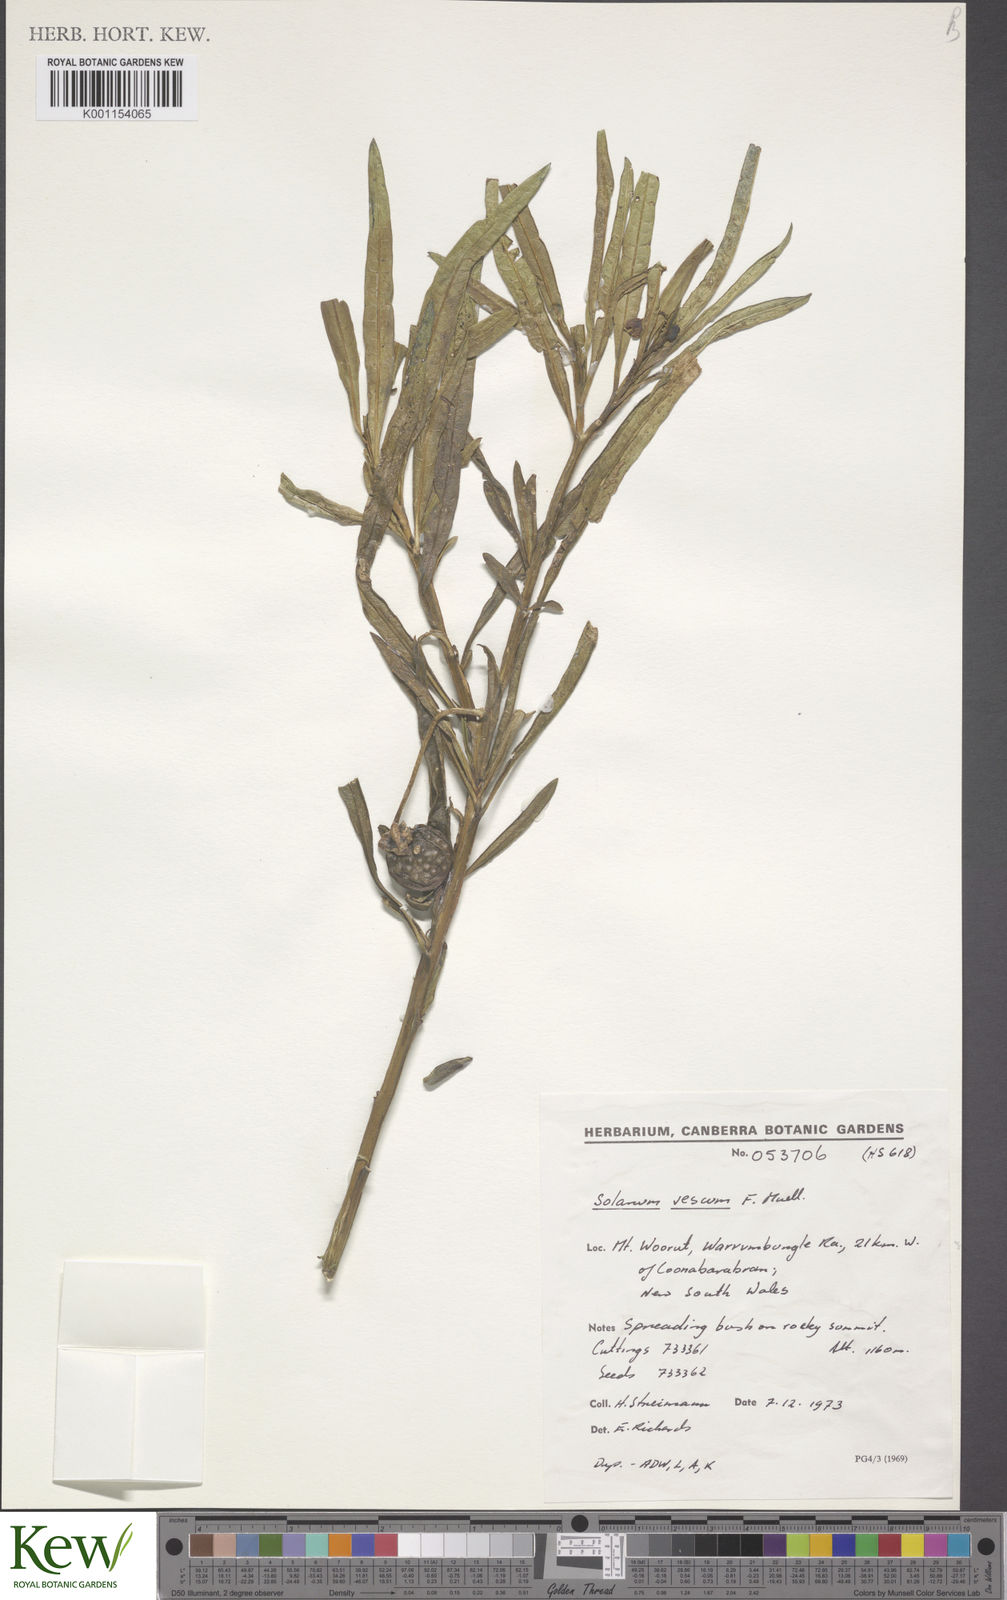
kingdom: Plantae
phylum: Tracheophyta
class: Magnoliopsida
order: Solanales
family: Solanaceae
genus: Solanum
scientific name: Solanum
